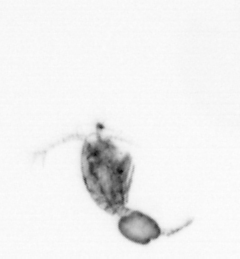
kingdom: Animalia
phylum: Arthropoda
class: Copepoda
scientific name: Copepoda
